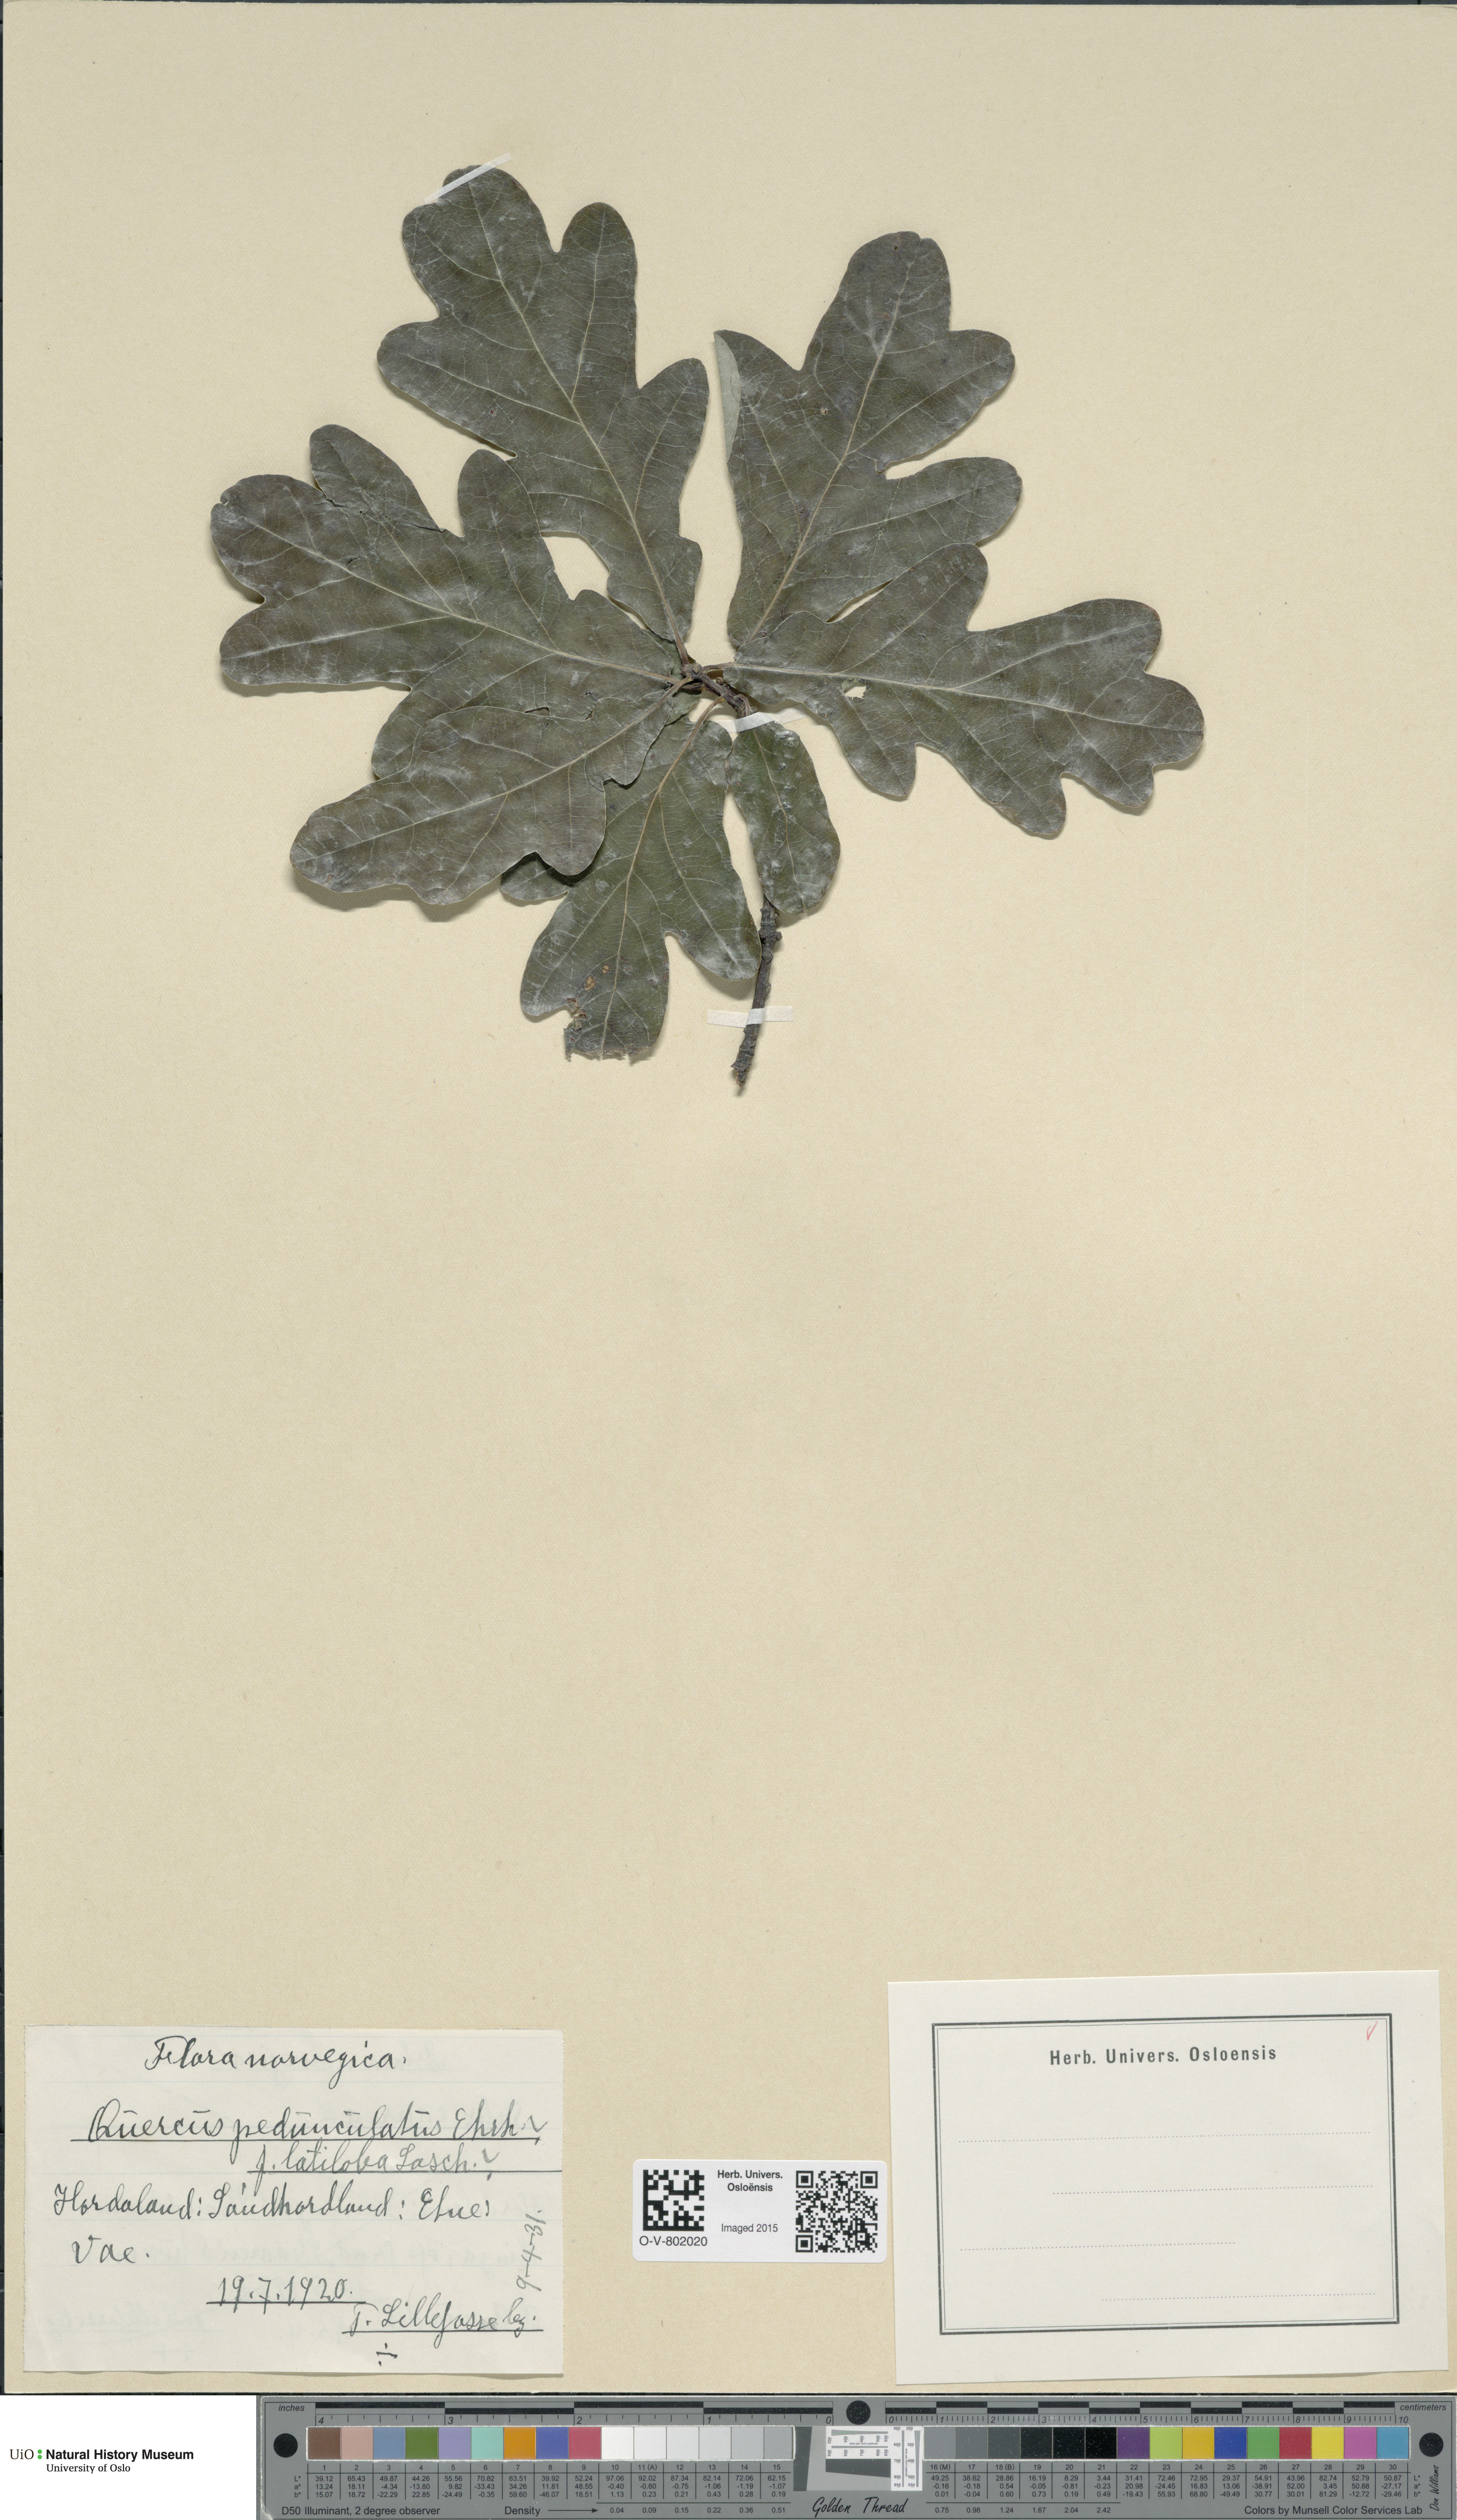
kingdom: Plantae
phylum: Tracheophyta
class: Magnoliopsida
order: Fagales
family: Fagaceae
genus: Quercus
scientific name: Quercus robur
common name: Pedunculate oak
